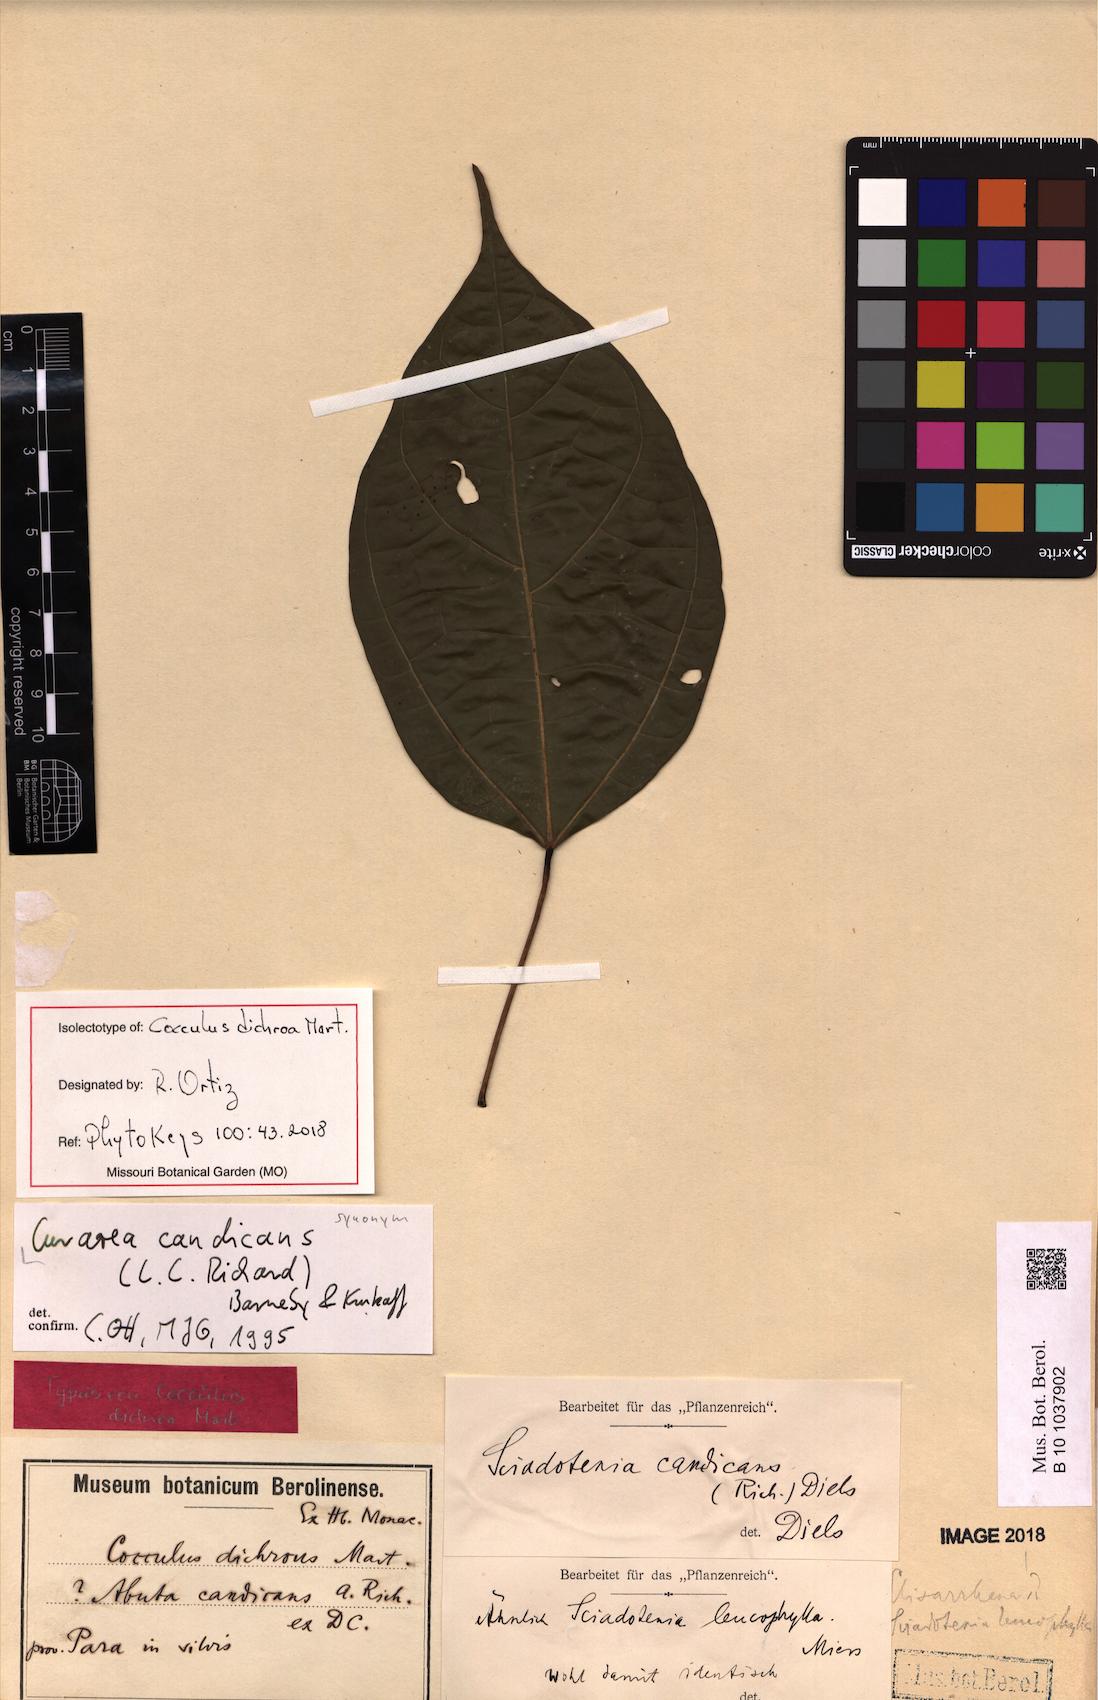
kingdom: Plantae
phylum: Tracheophyta
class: Magnoliopsida
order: Ranunculales
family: Menispermaceae
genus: Curarea
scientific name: Curarea candicans
